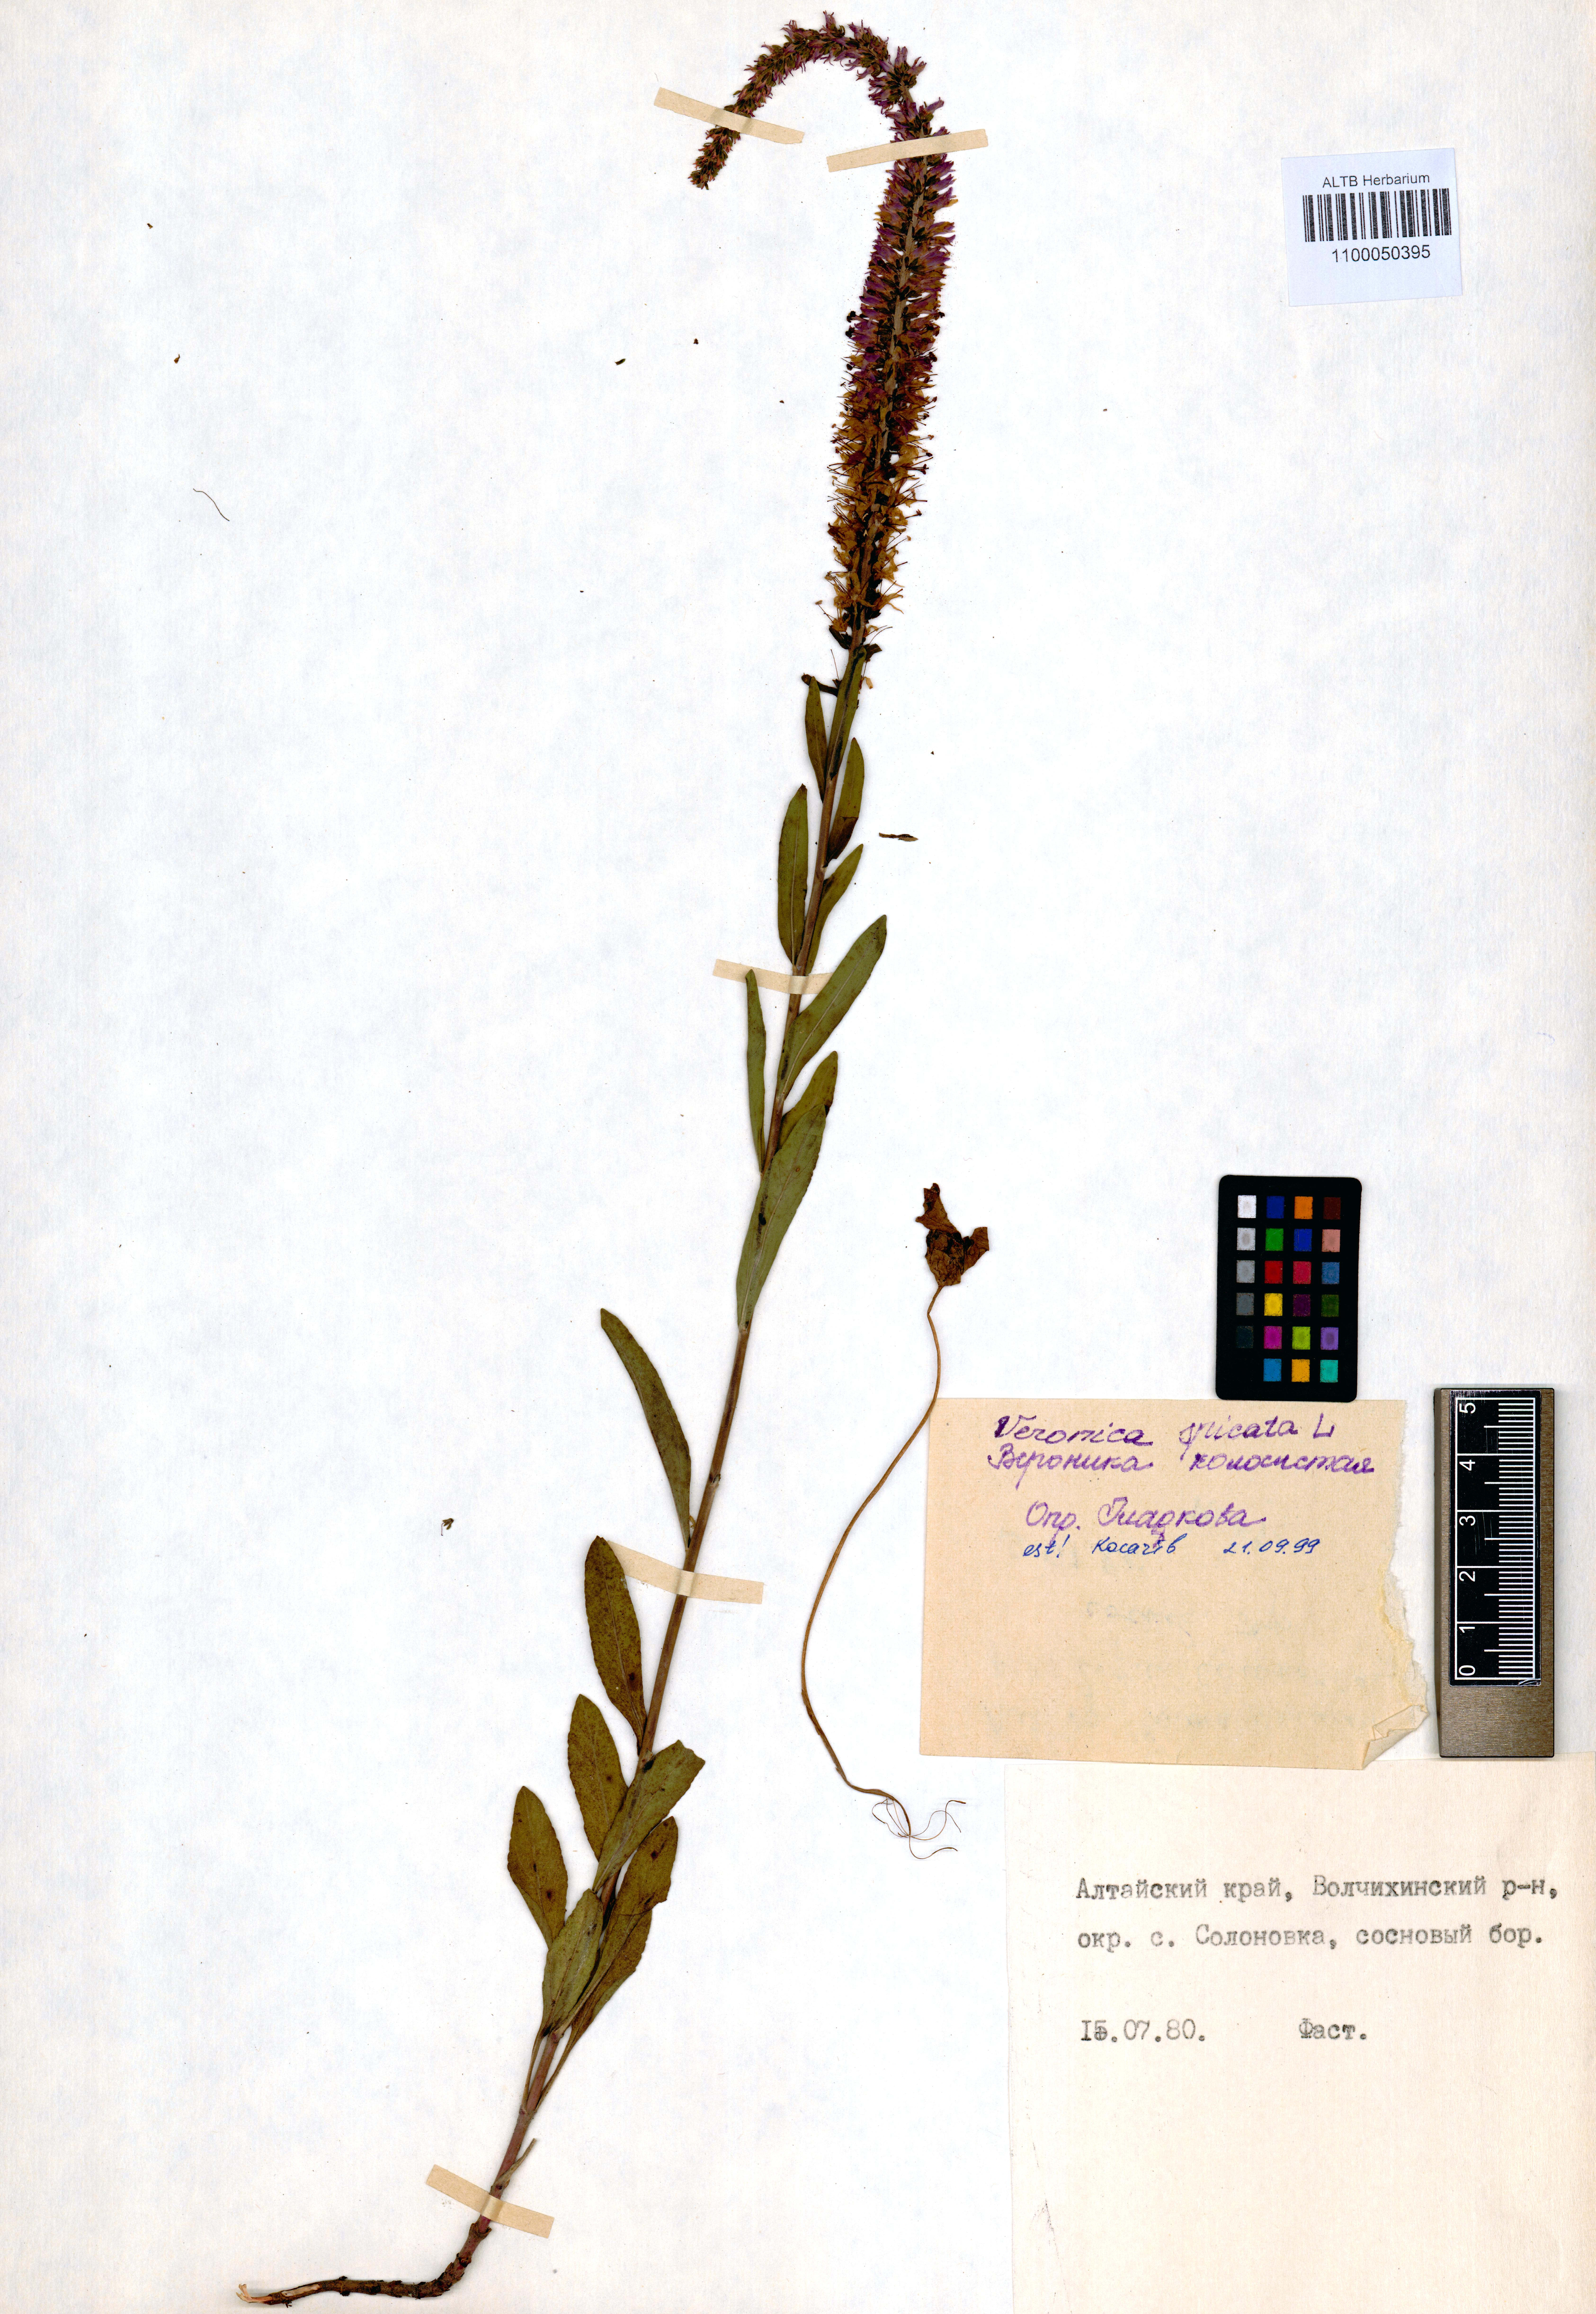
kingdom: Plantae
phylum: Tracheophyta
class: Magnoliopsida
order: Lamiales
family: Plantaginaceae
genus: Veronica
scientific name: Veronica spicata
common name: Spiked speedwell
